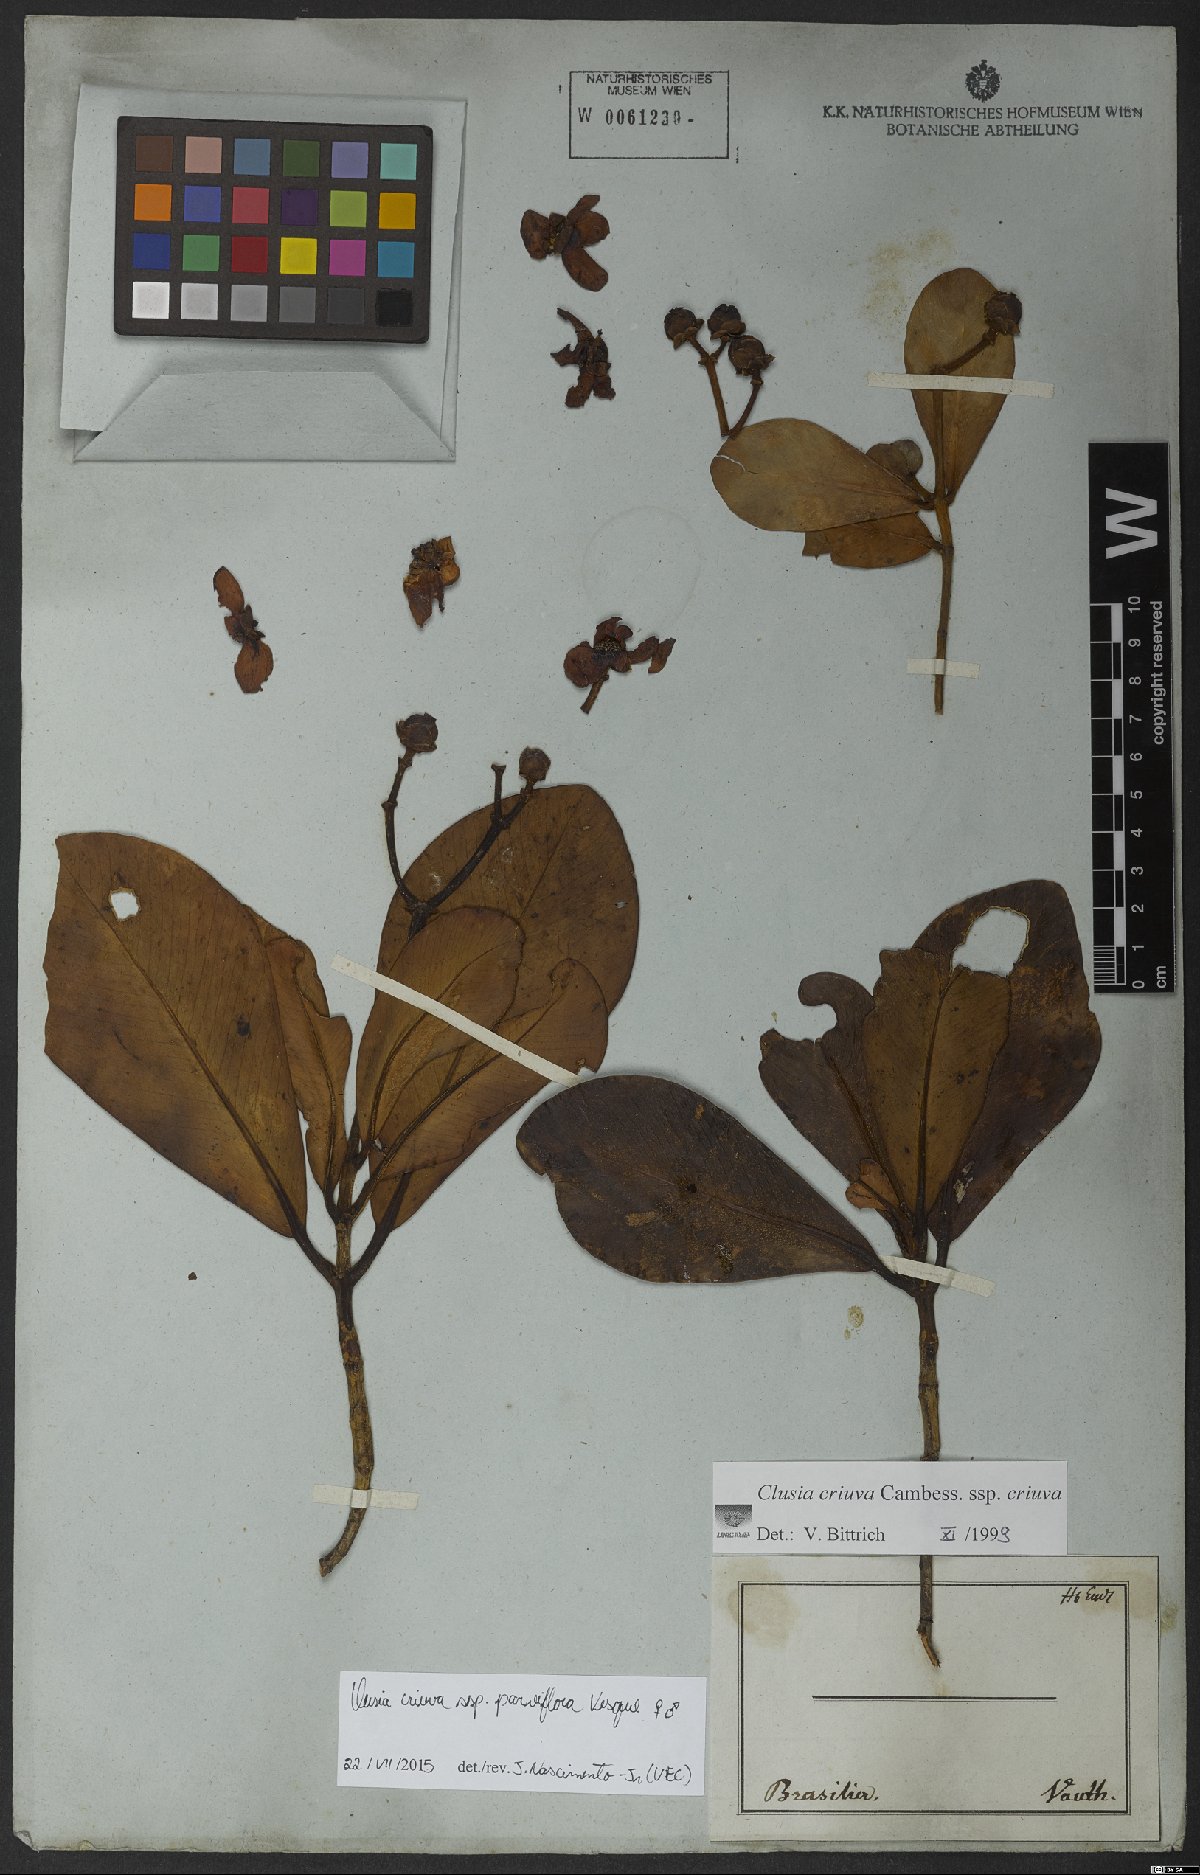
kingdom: Plantae
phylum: Tracheophyta
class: Magnoliopsida
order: Malpighiales
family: Clusiaceae
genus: Clusia
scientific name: Clusia criuva
